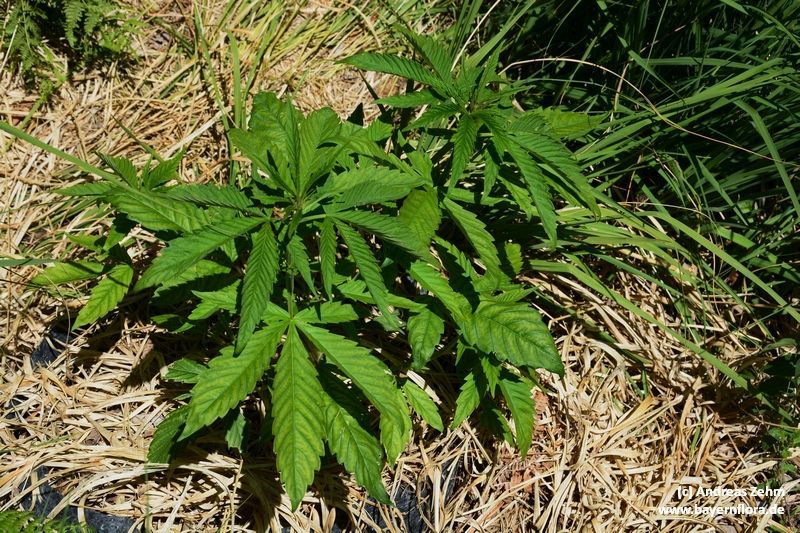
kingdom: Plantae
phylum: Tracheophyta
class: Magnoliopsida
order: Rosales
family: Cannabaceae
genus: Cannabis
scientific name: Cannabis sativa
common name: Hemp
